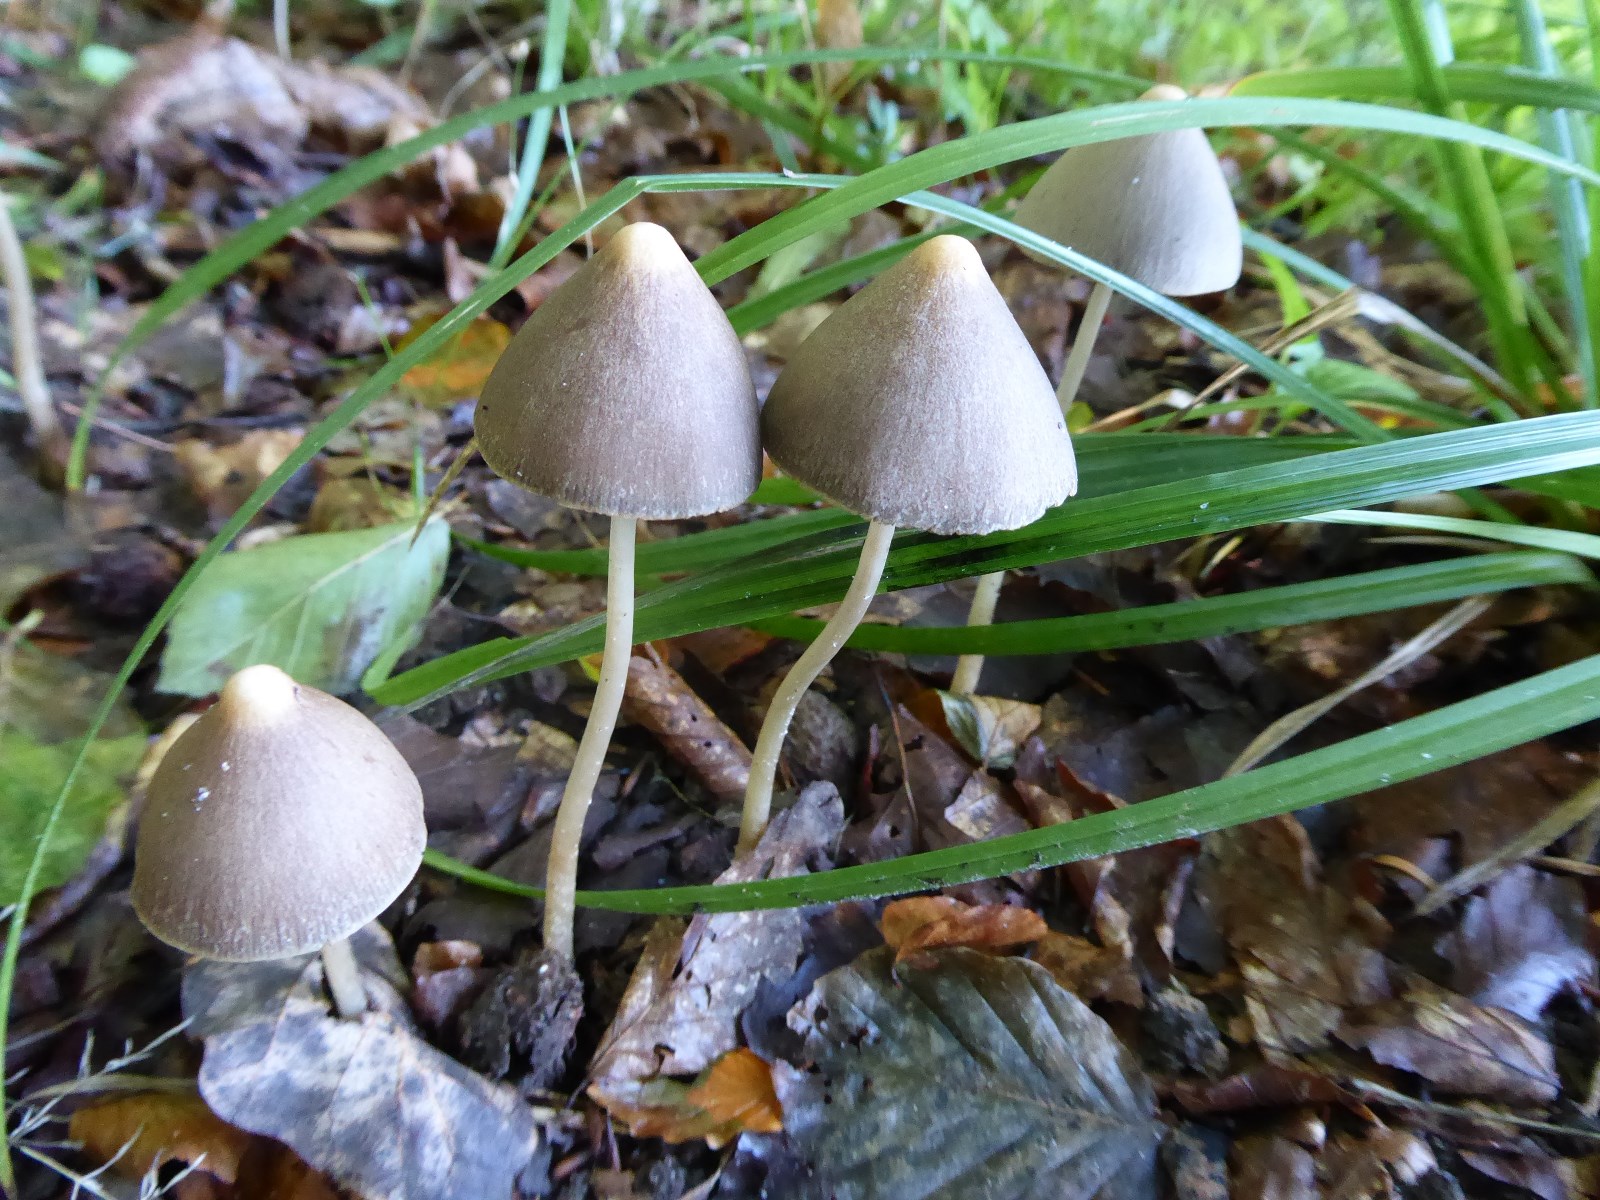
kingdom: Fungi
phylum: Basidiomycota
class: Agaricomycetes
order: Agaricales
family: Psathyrellaceae
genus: Parasola
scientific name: Parasola conopilea
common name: kegle-hjulhat
